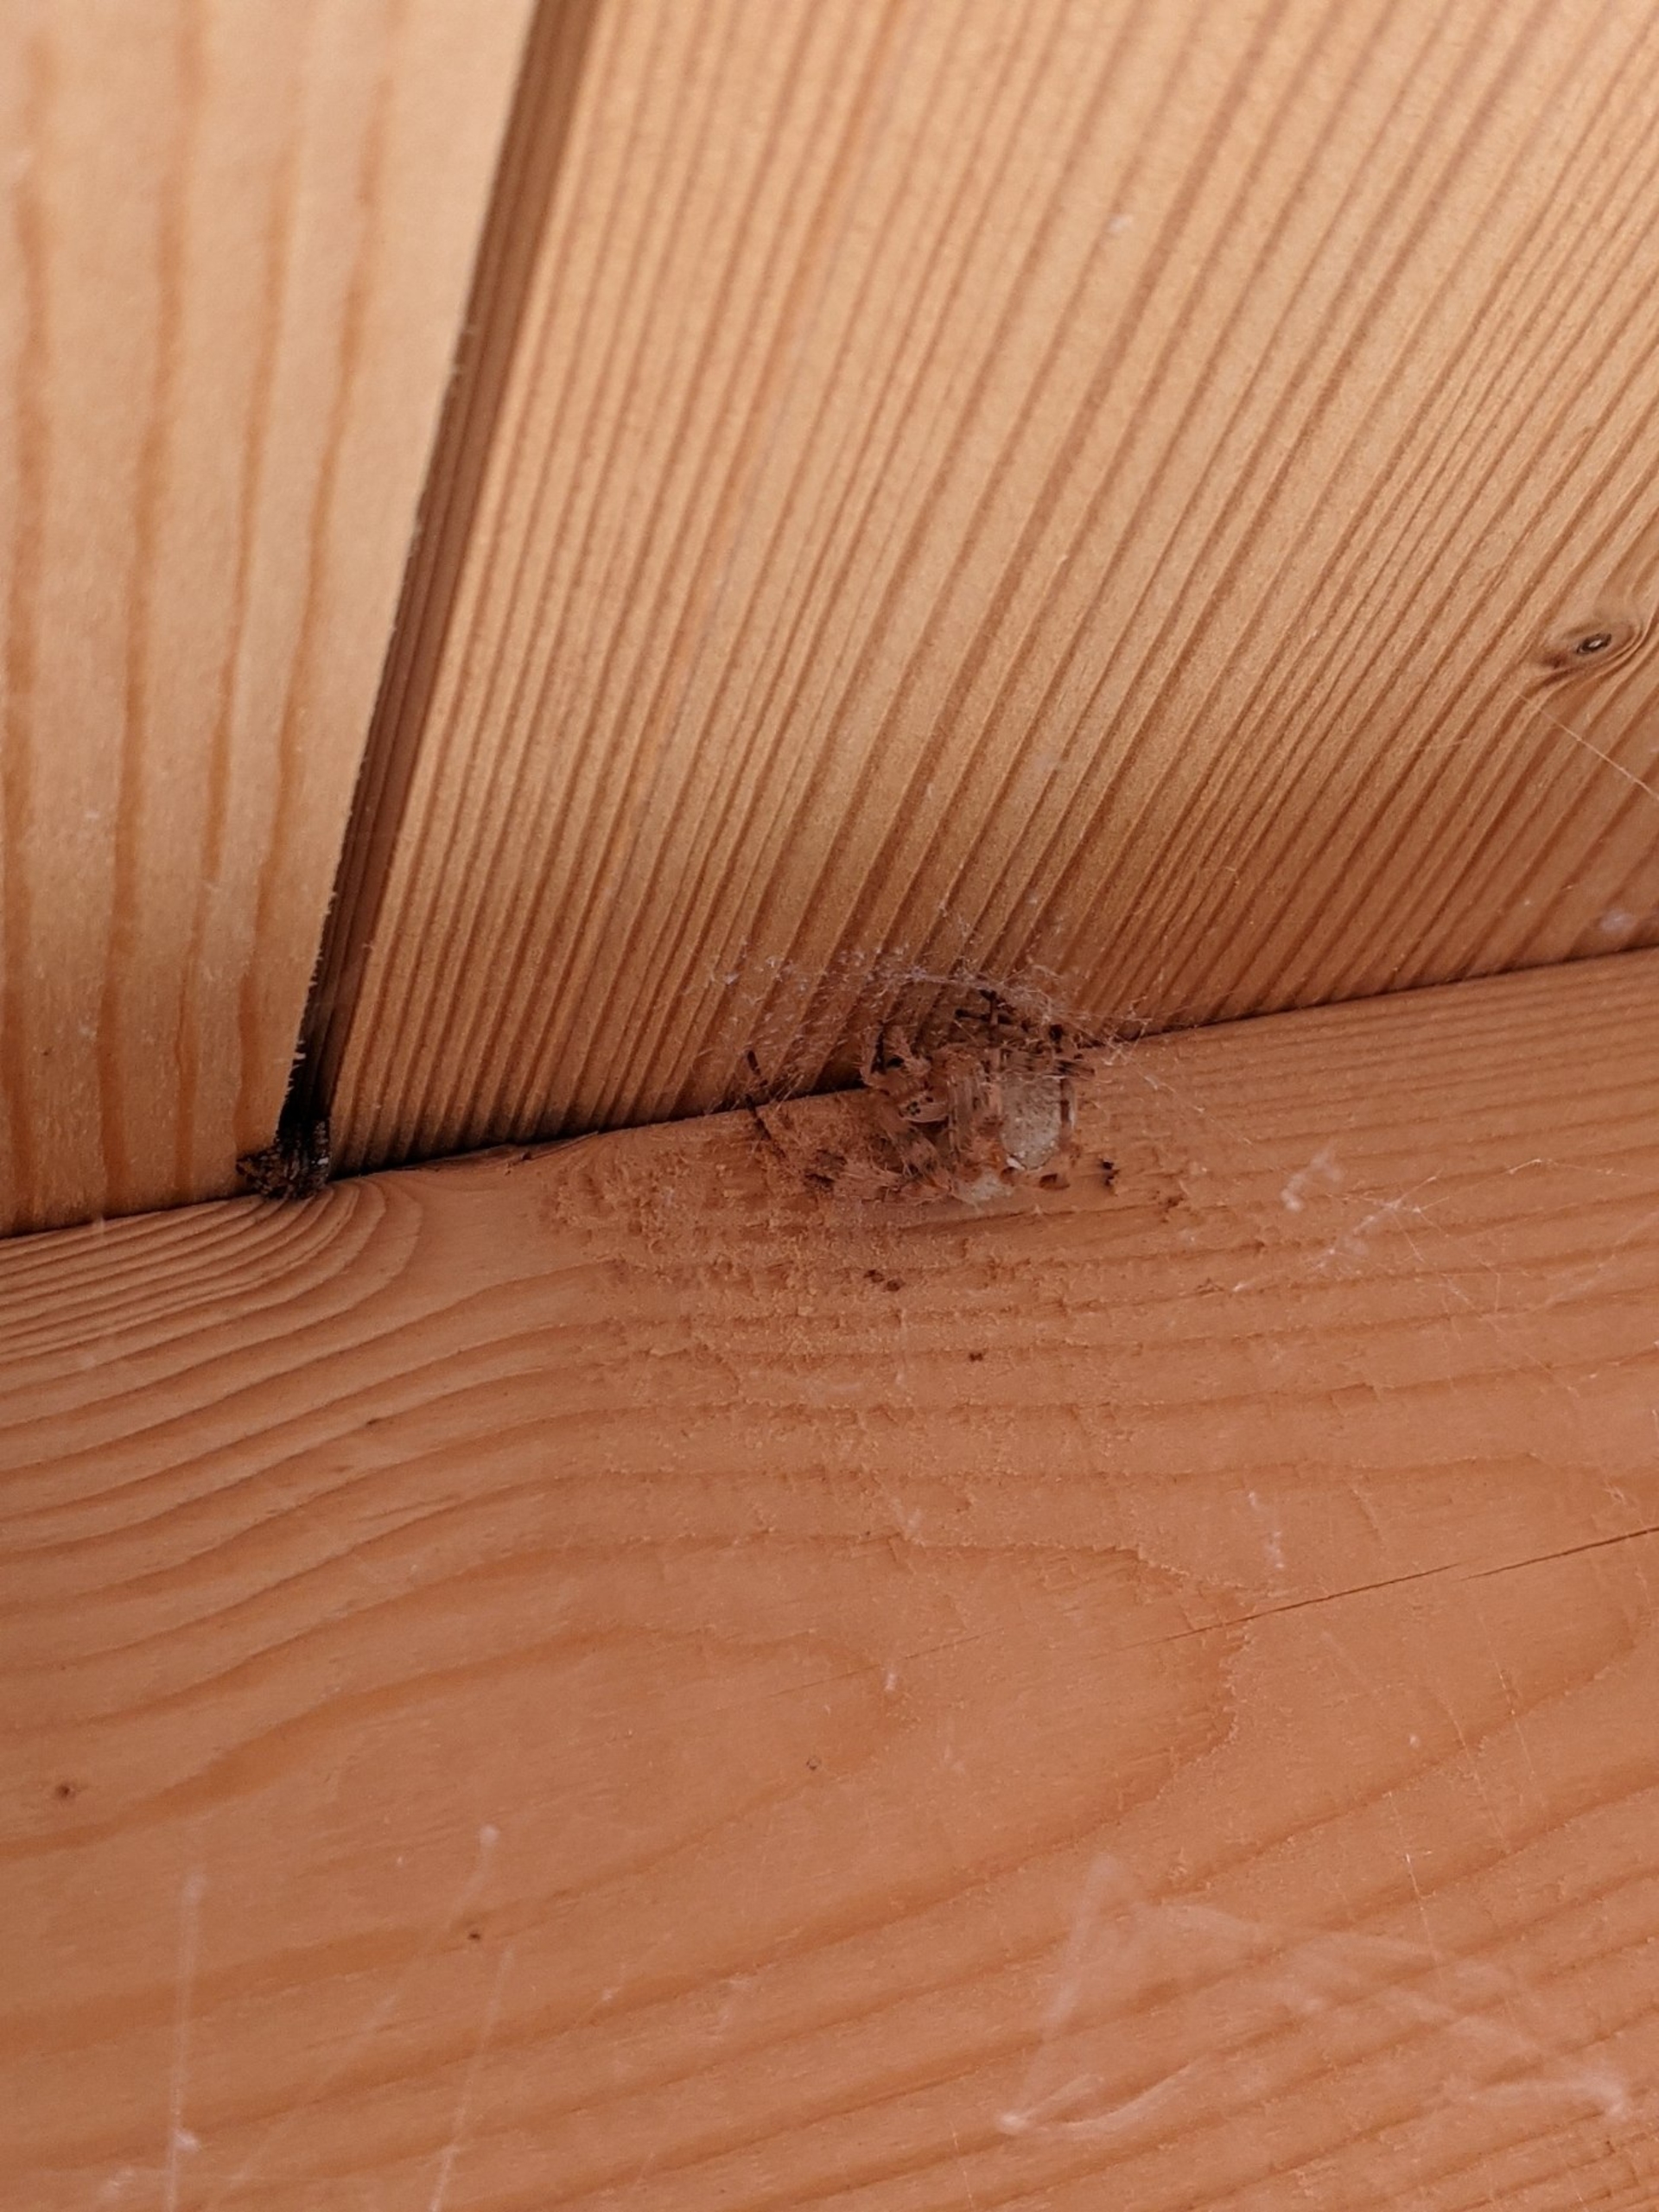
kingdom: Animalia
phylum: Arthropoda
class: Arachnida
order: Araneae
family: Araneidae
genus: Araneus
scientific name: Araneus diadematus
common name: Korsedderkop
